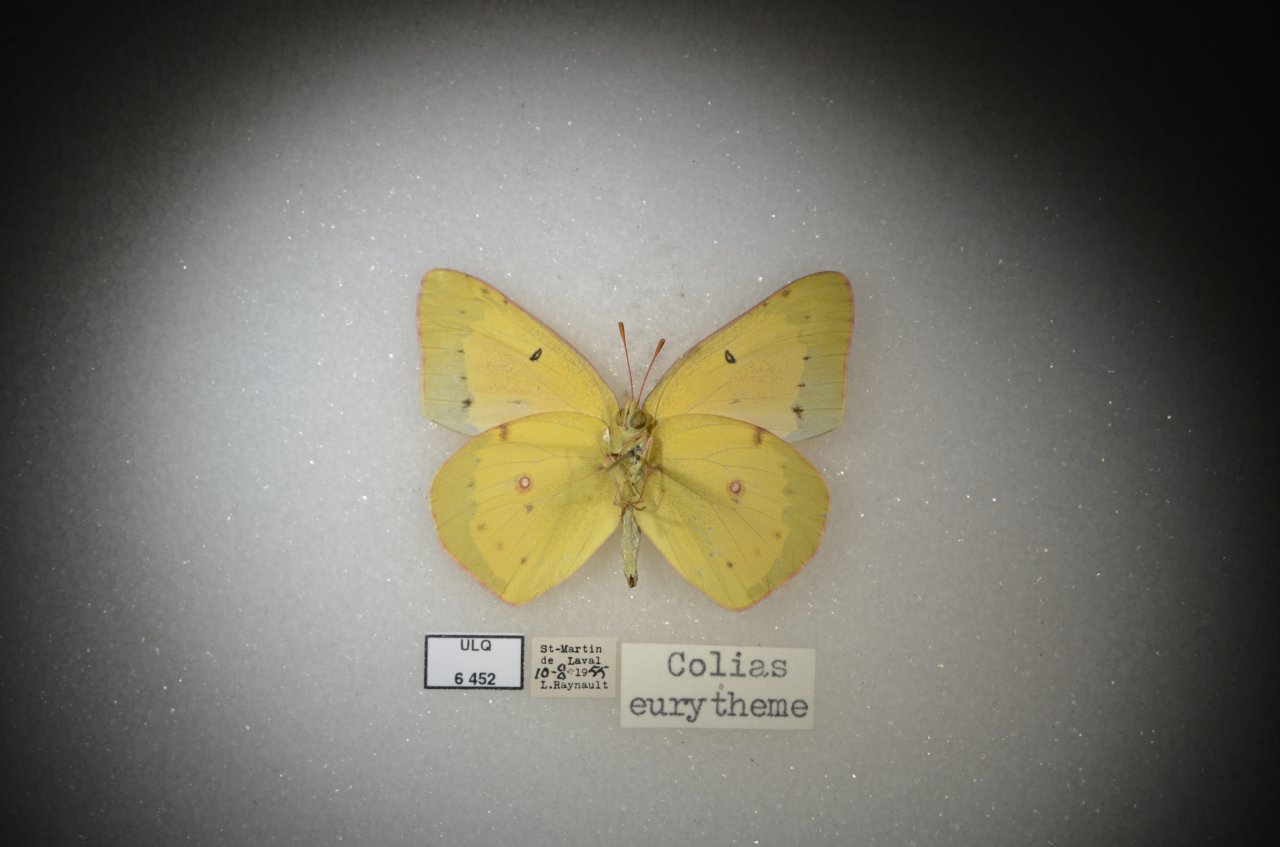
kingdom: Animalia
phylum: Arthropoda
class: Insecta
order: Lepidoptera
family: Pieridae
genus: Colias
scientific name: Colias eurytheme
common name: Orange Sulphur
